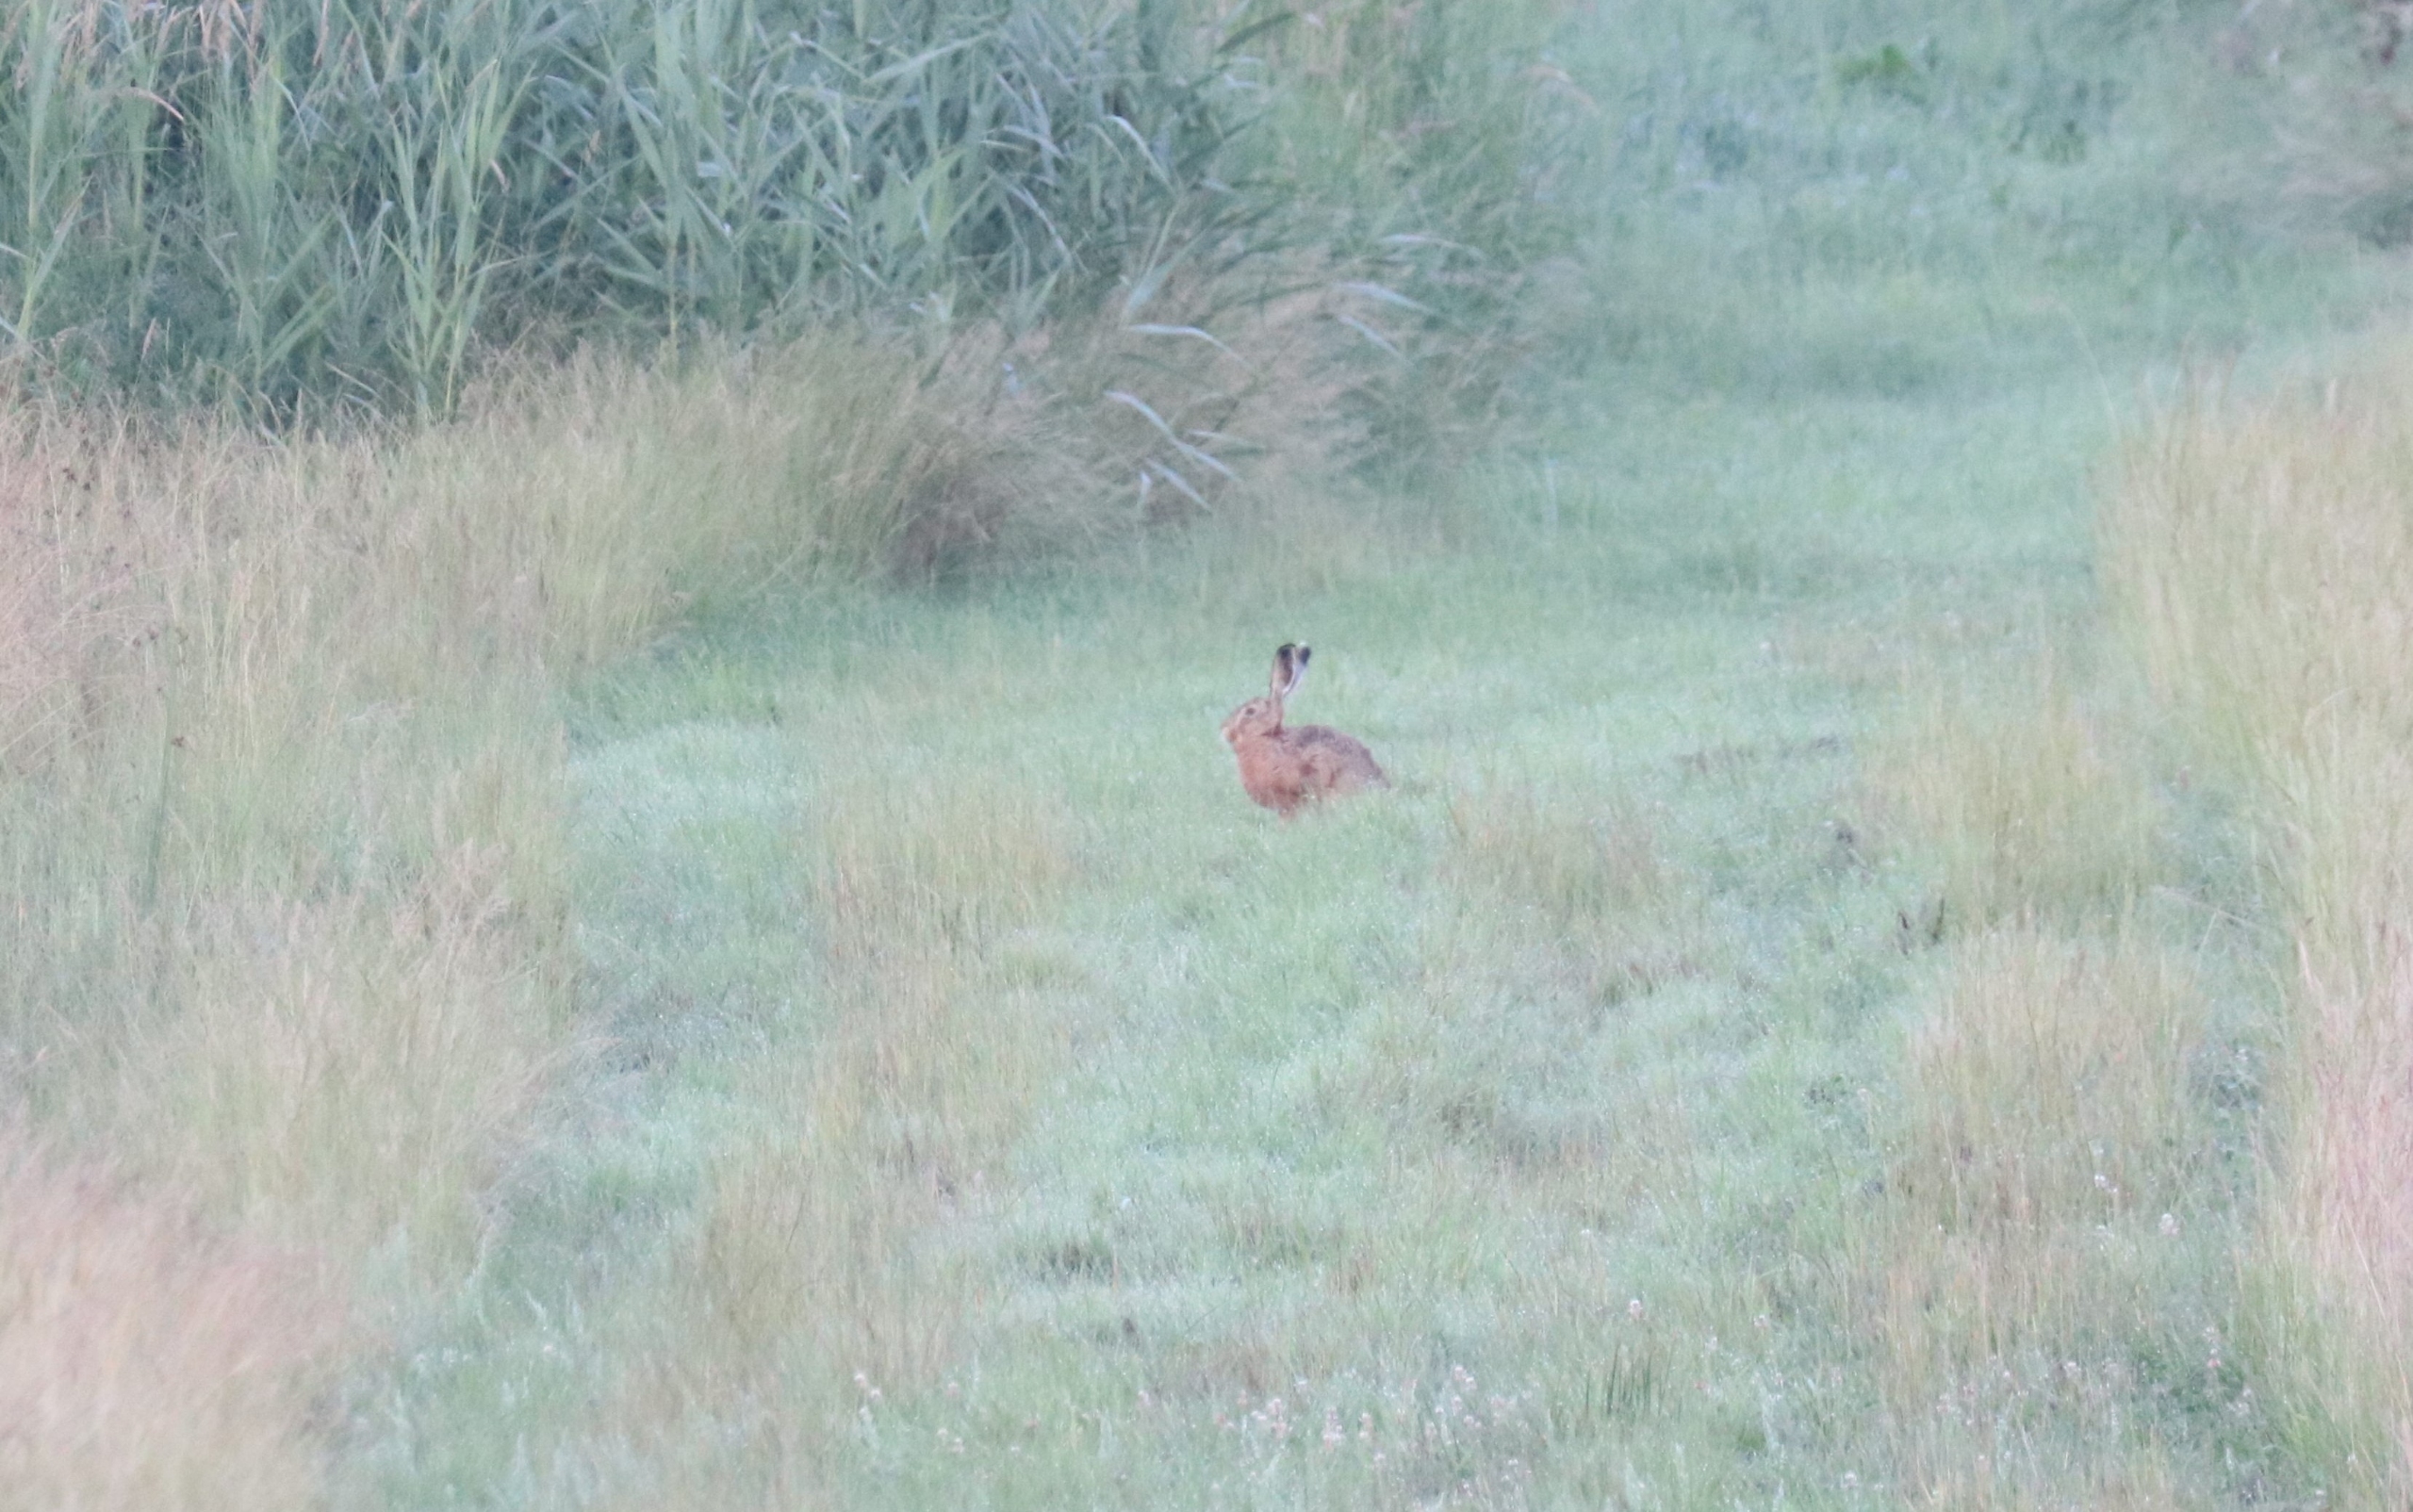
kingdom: Animalia
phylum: Chordata
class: Mammalia
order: Lagomorpha
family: Leporidae
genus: Lepus
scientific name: Lepus europaeus
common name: Hare
